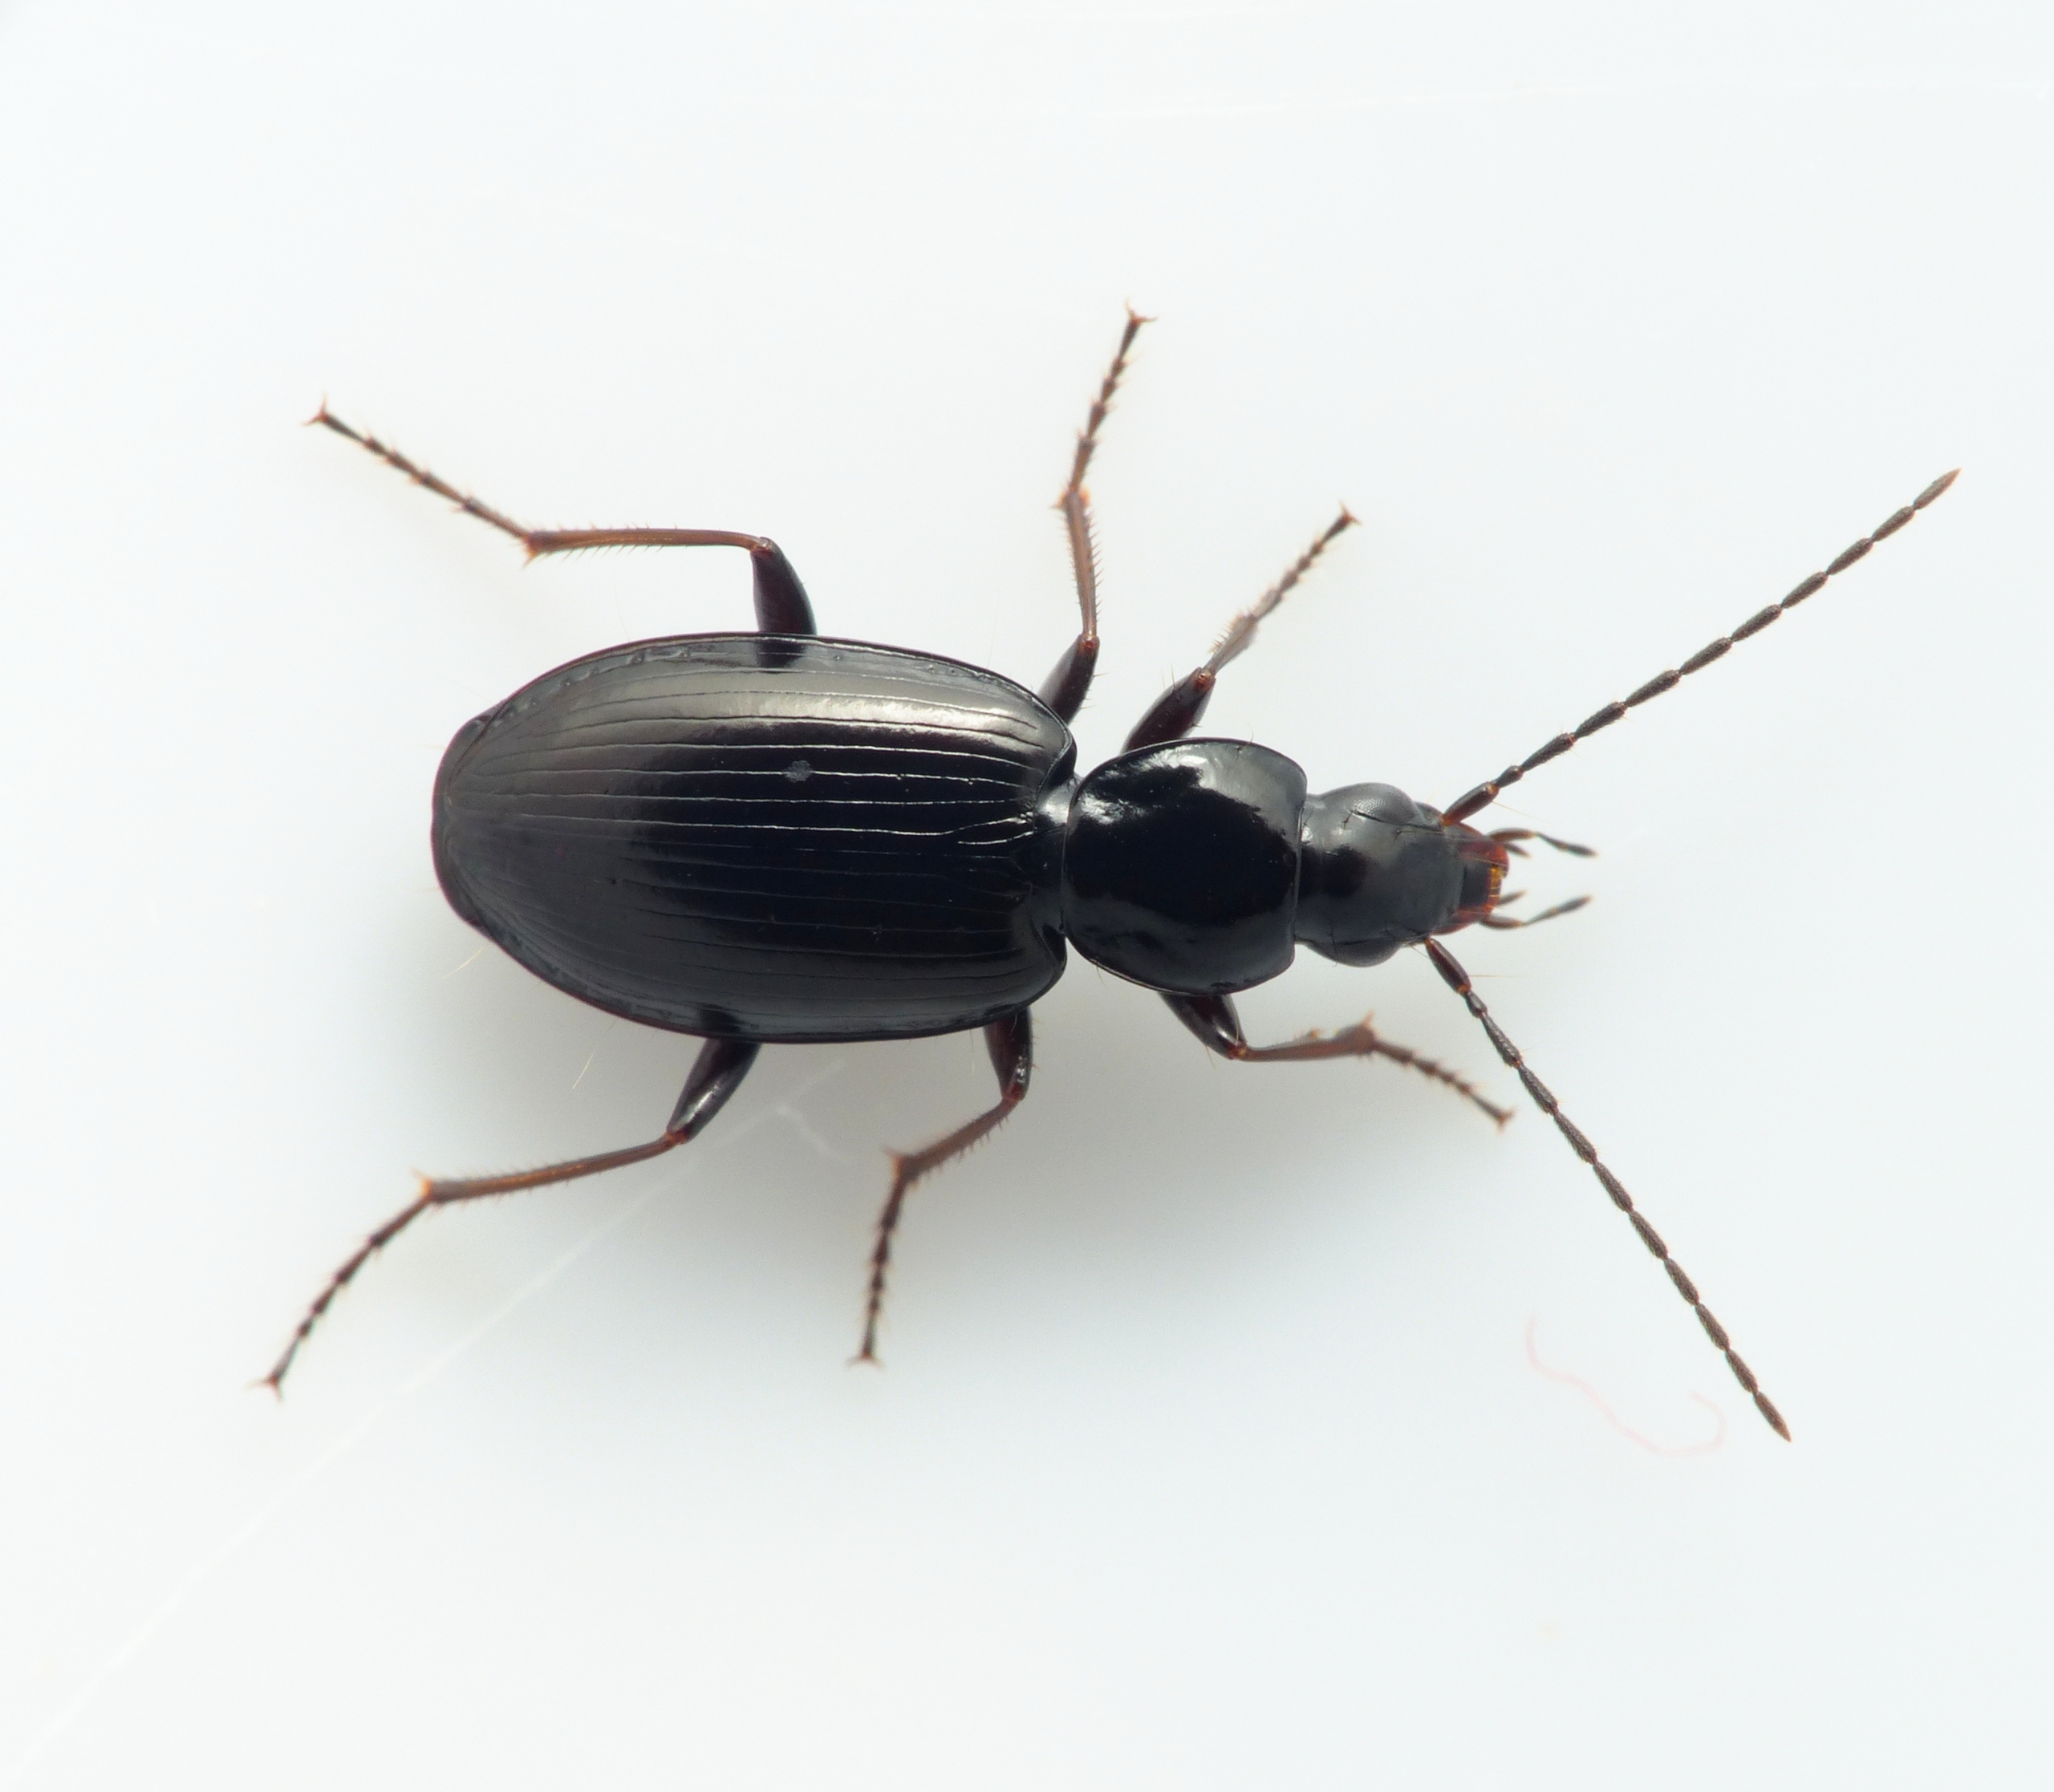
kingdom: Animalia
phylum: Arthropoda
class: Insecta
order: Coleoptera
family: Carabidae
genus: Agonum
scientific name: Agonum fuliginosum
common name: Kort kvikløber
